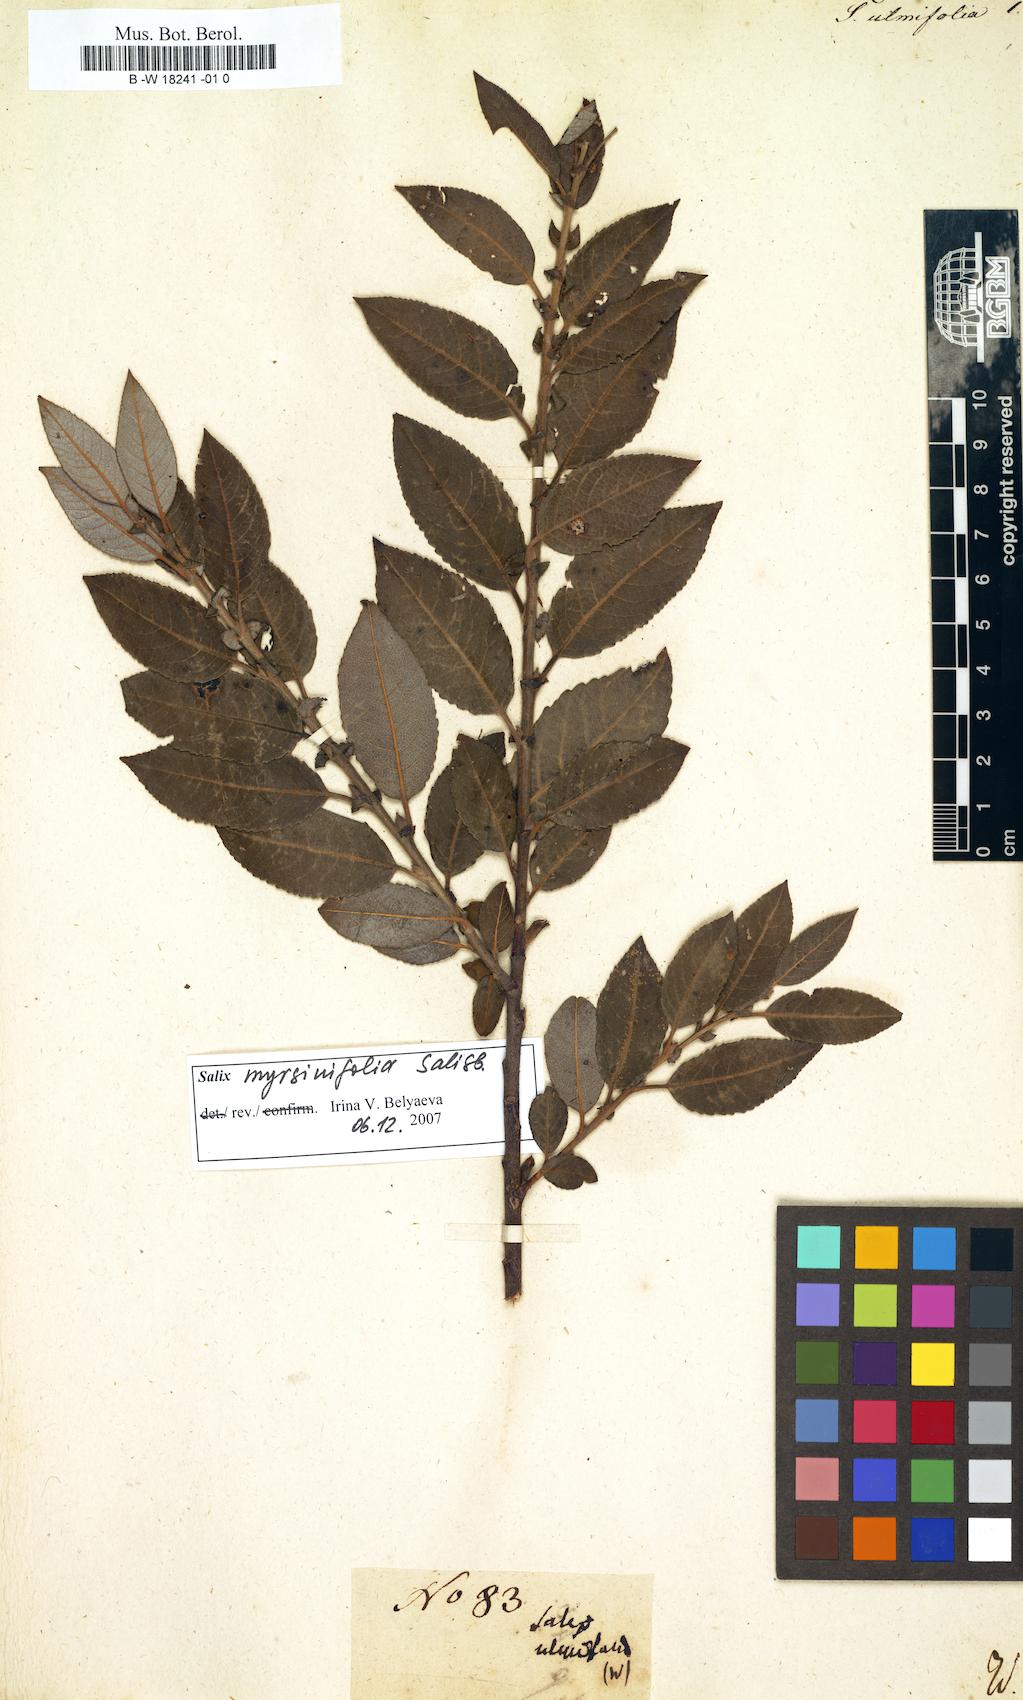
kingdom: Plantae
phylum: Tracheophyta
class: Magnoliopsida
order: Malpighiales
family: Salicaceae
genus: Salix
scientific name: Salix ulmifolia
